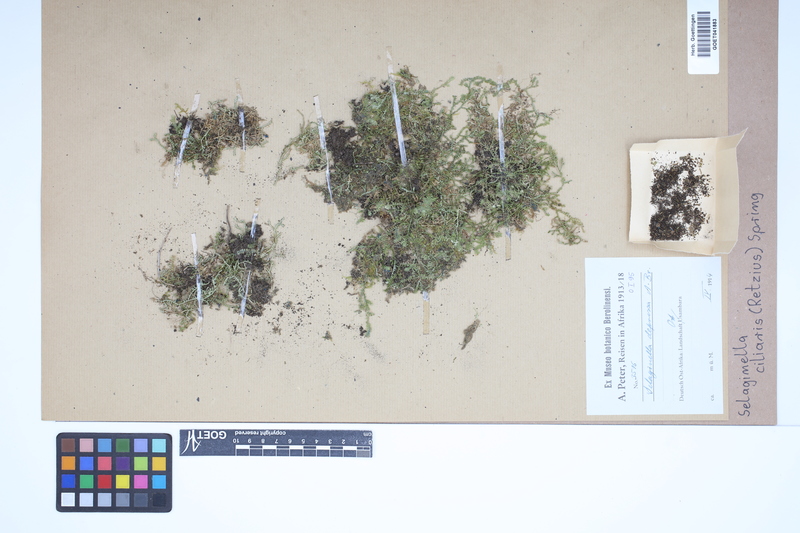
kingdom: Plantae
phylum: Tracheophyta
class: Lycopodiopsida
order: Selaginellales
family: Selaginellaceae
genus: Selaginella
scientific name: Selaginella ciliaris
